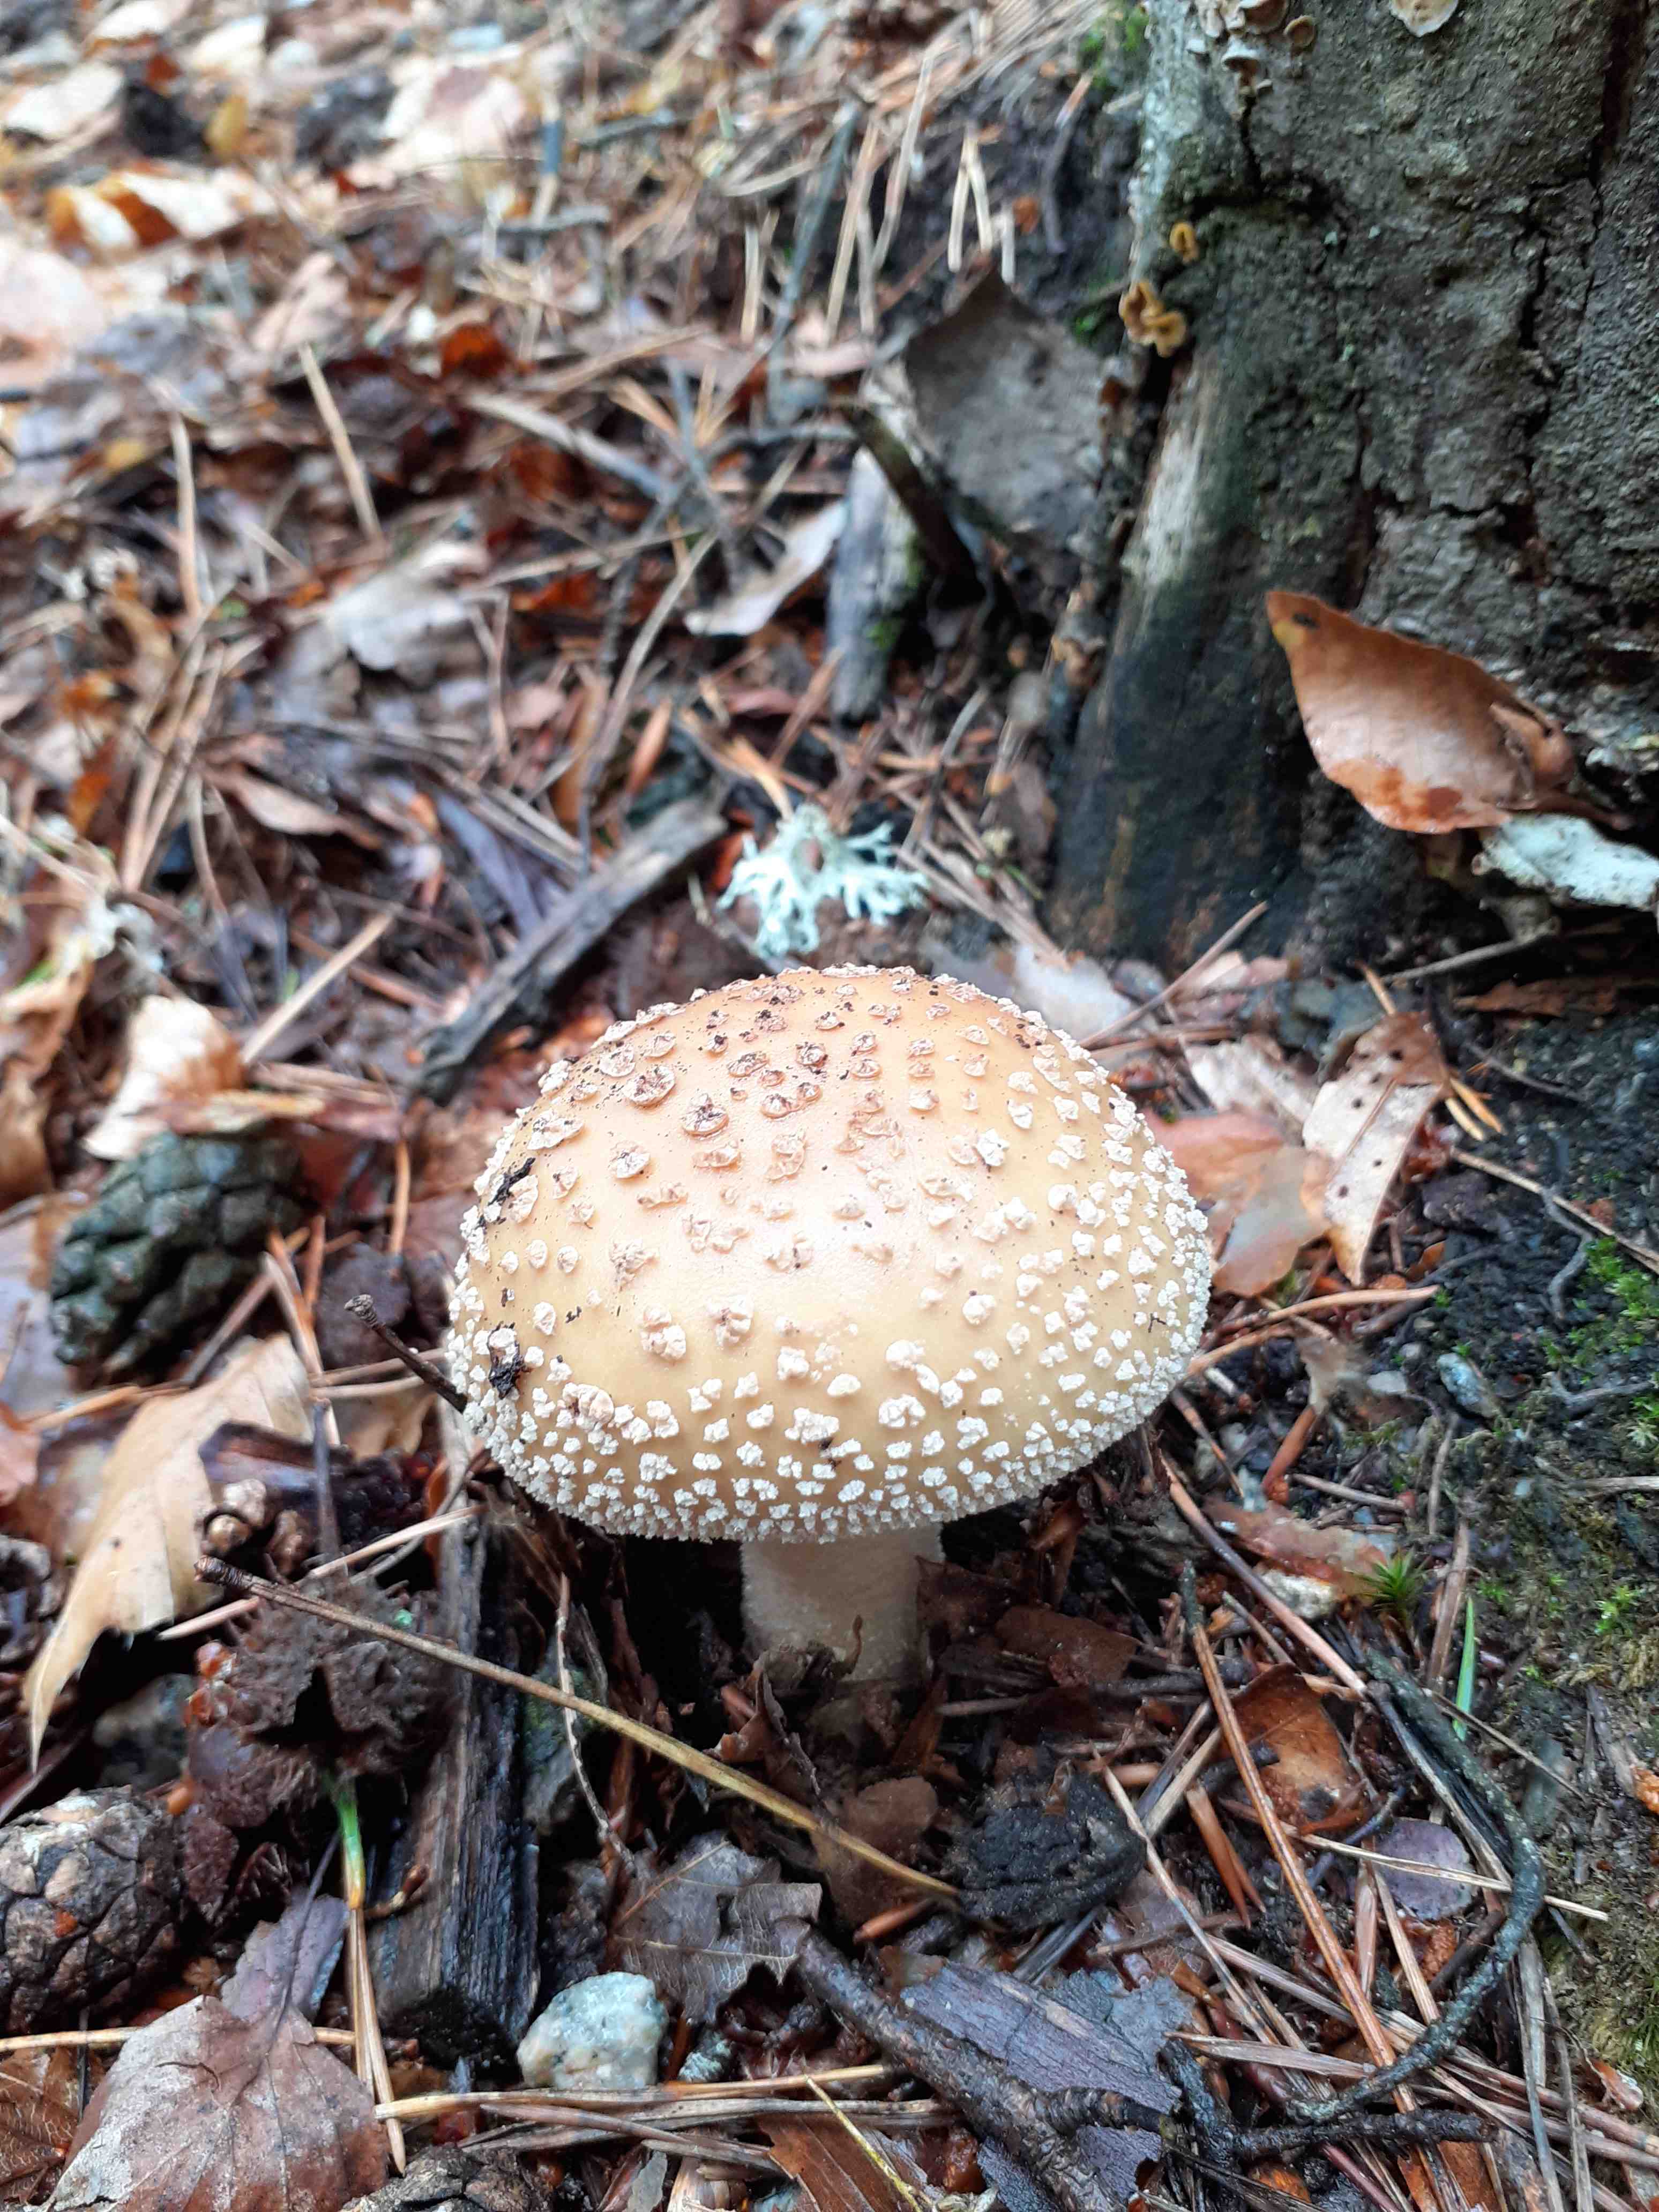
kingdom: Fungi
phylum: Basidiomycota
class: Agaricomycetes
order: Agaricales
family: Amanitaceae
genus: Amanita
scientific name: Amanita rubescens
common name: rødmende fluesvamp
